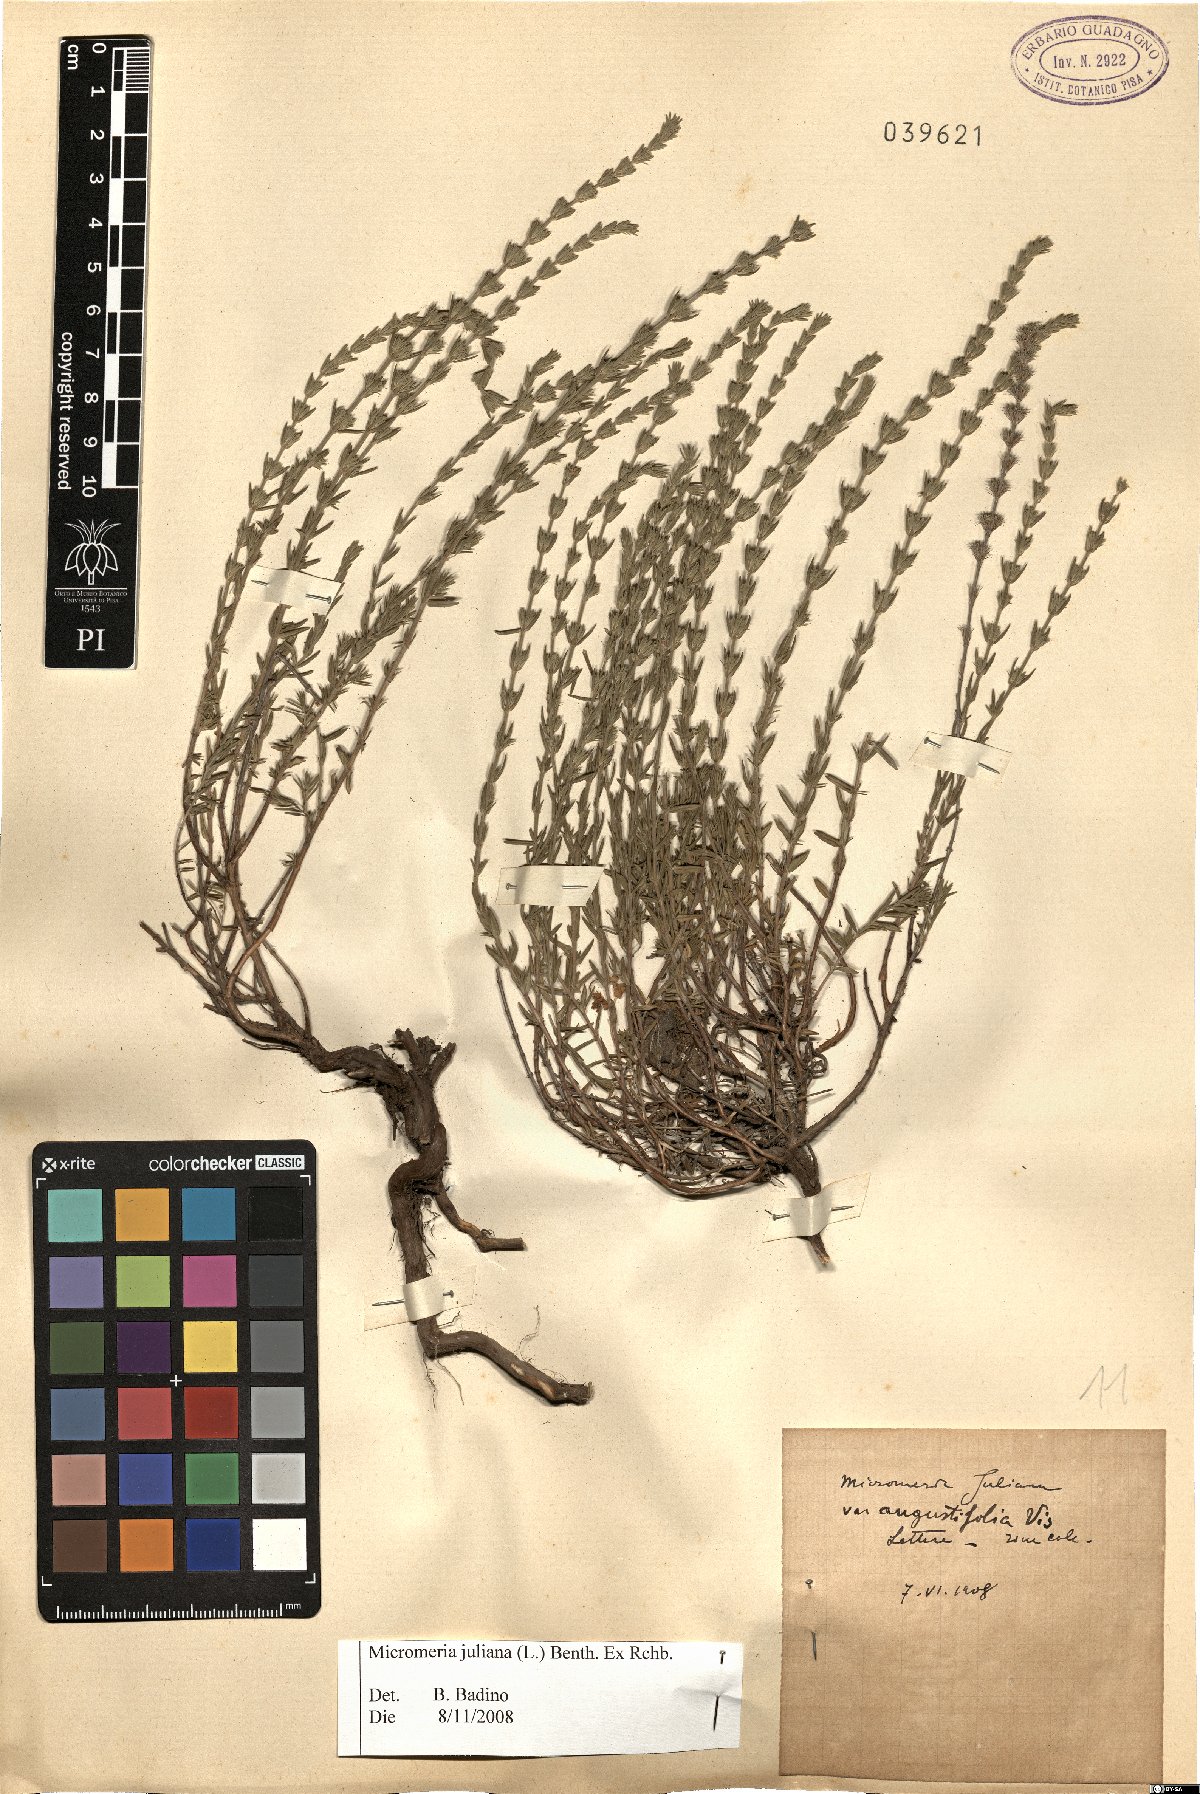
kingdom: Plantae
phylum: Tracheophyta
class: Magnoliopsida
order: Lamiales
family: Lamiaceae
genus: Micromeria
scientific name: Micromeria juliana
